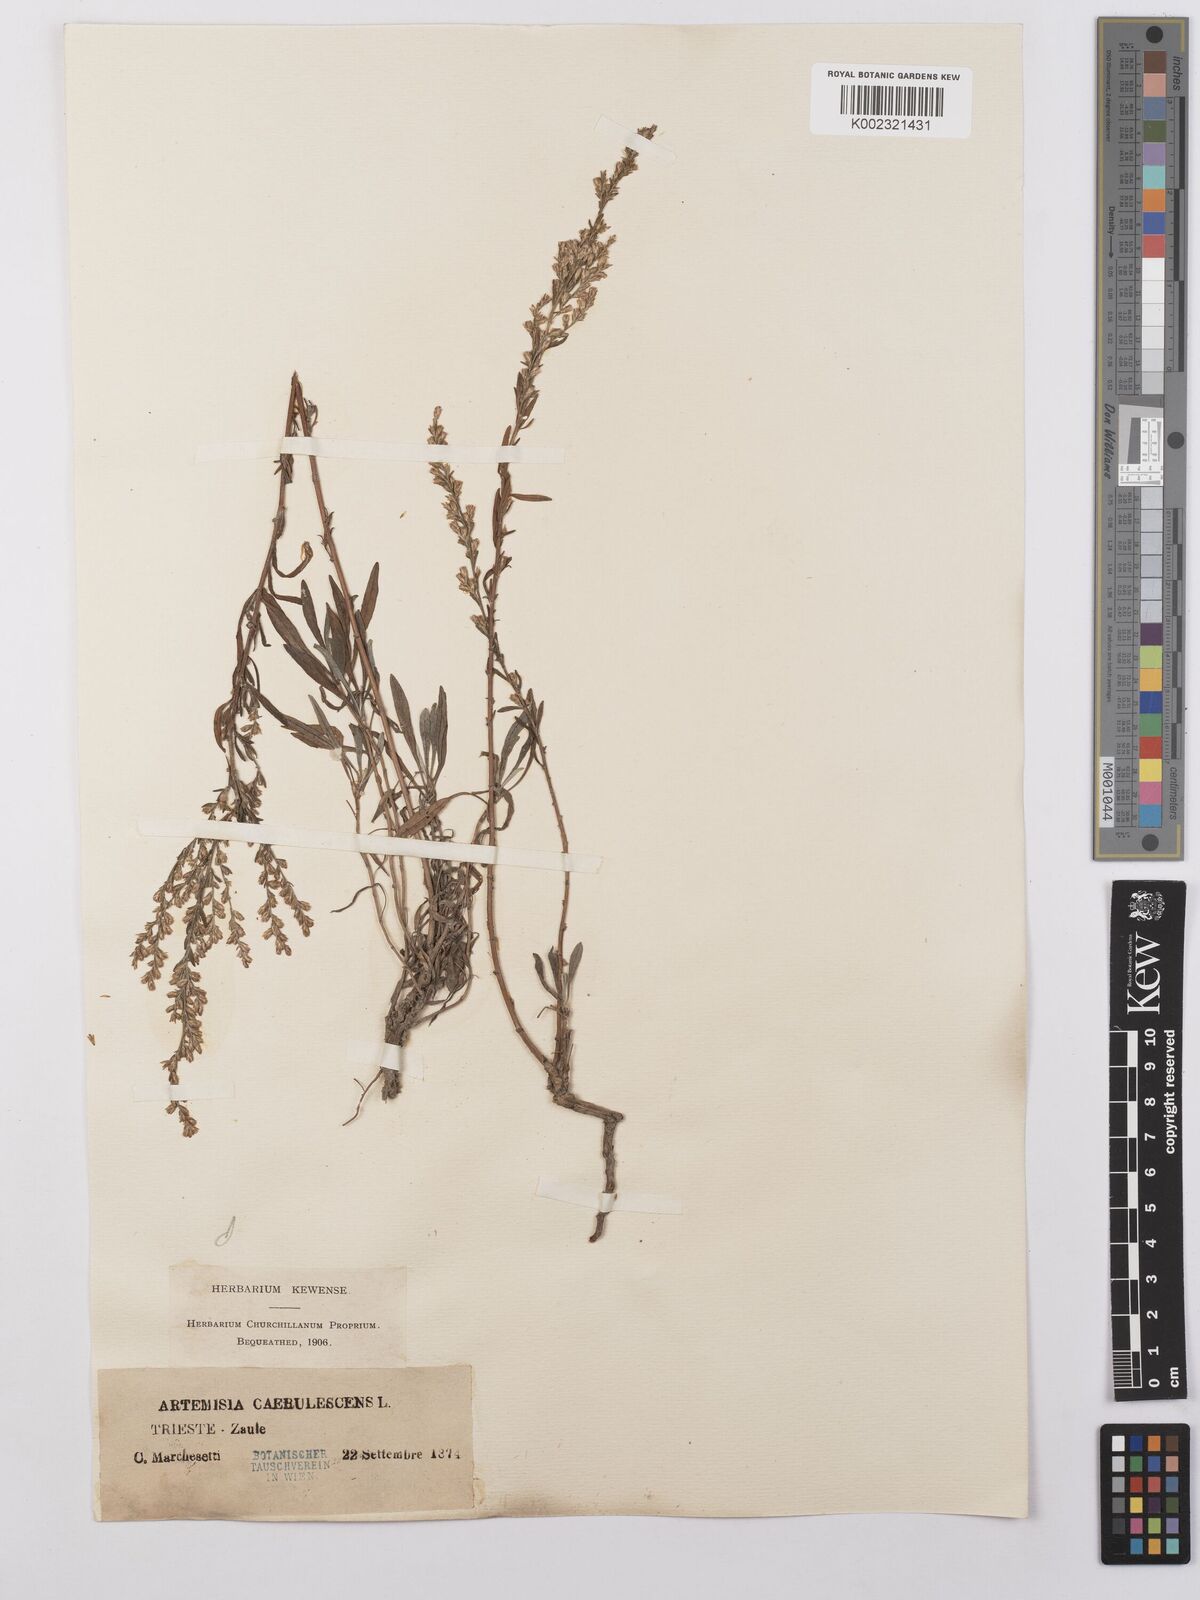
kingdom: Plantae
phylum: Tracheophyta
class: Magnoliopsida
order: Asterales
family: Asteraceae
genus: Artemisia
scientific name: Artemisia caerulescens
